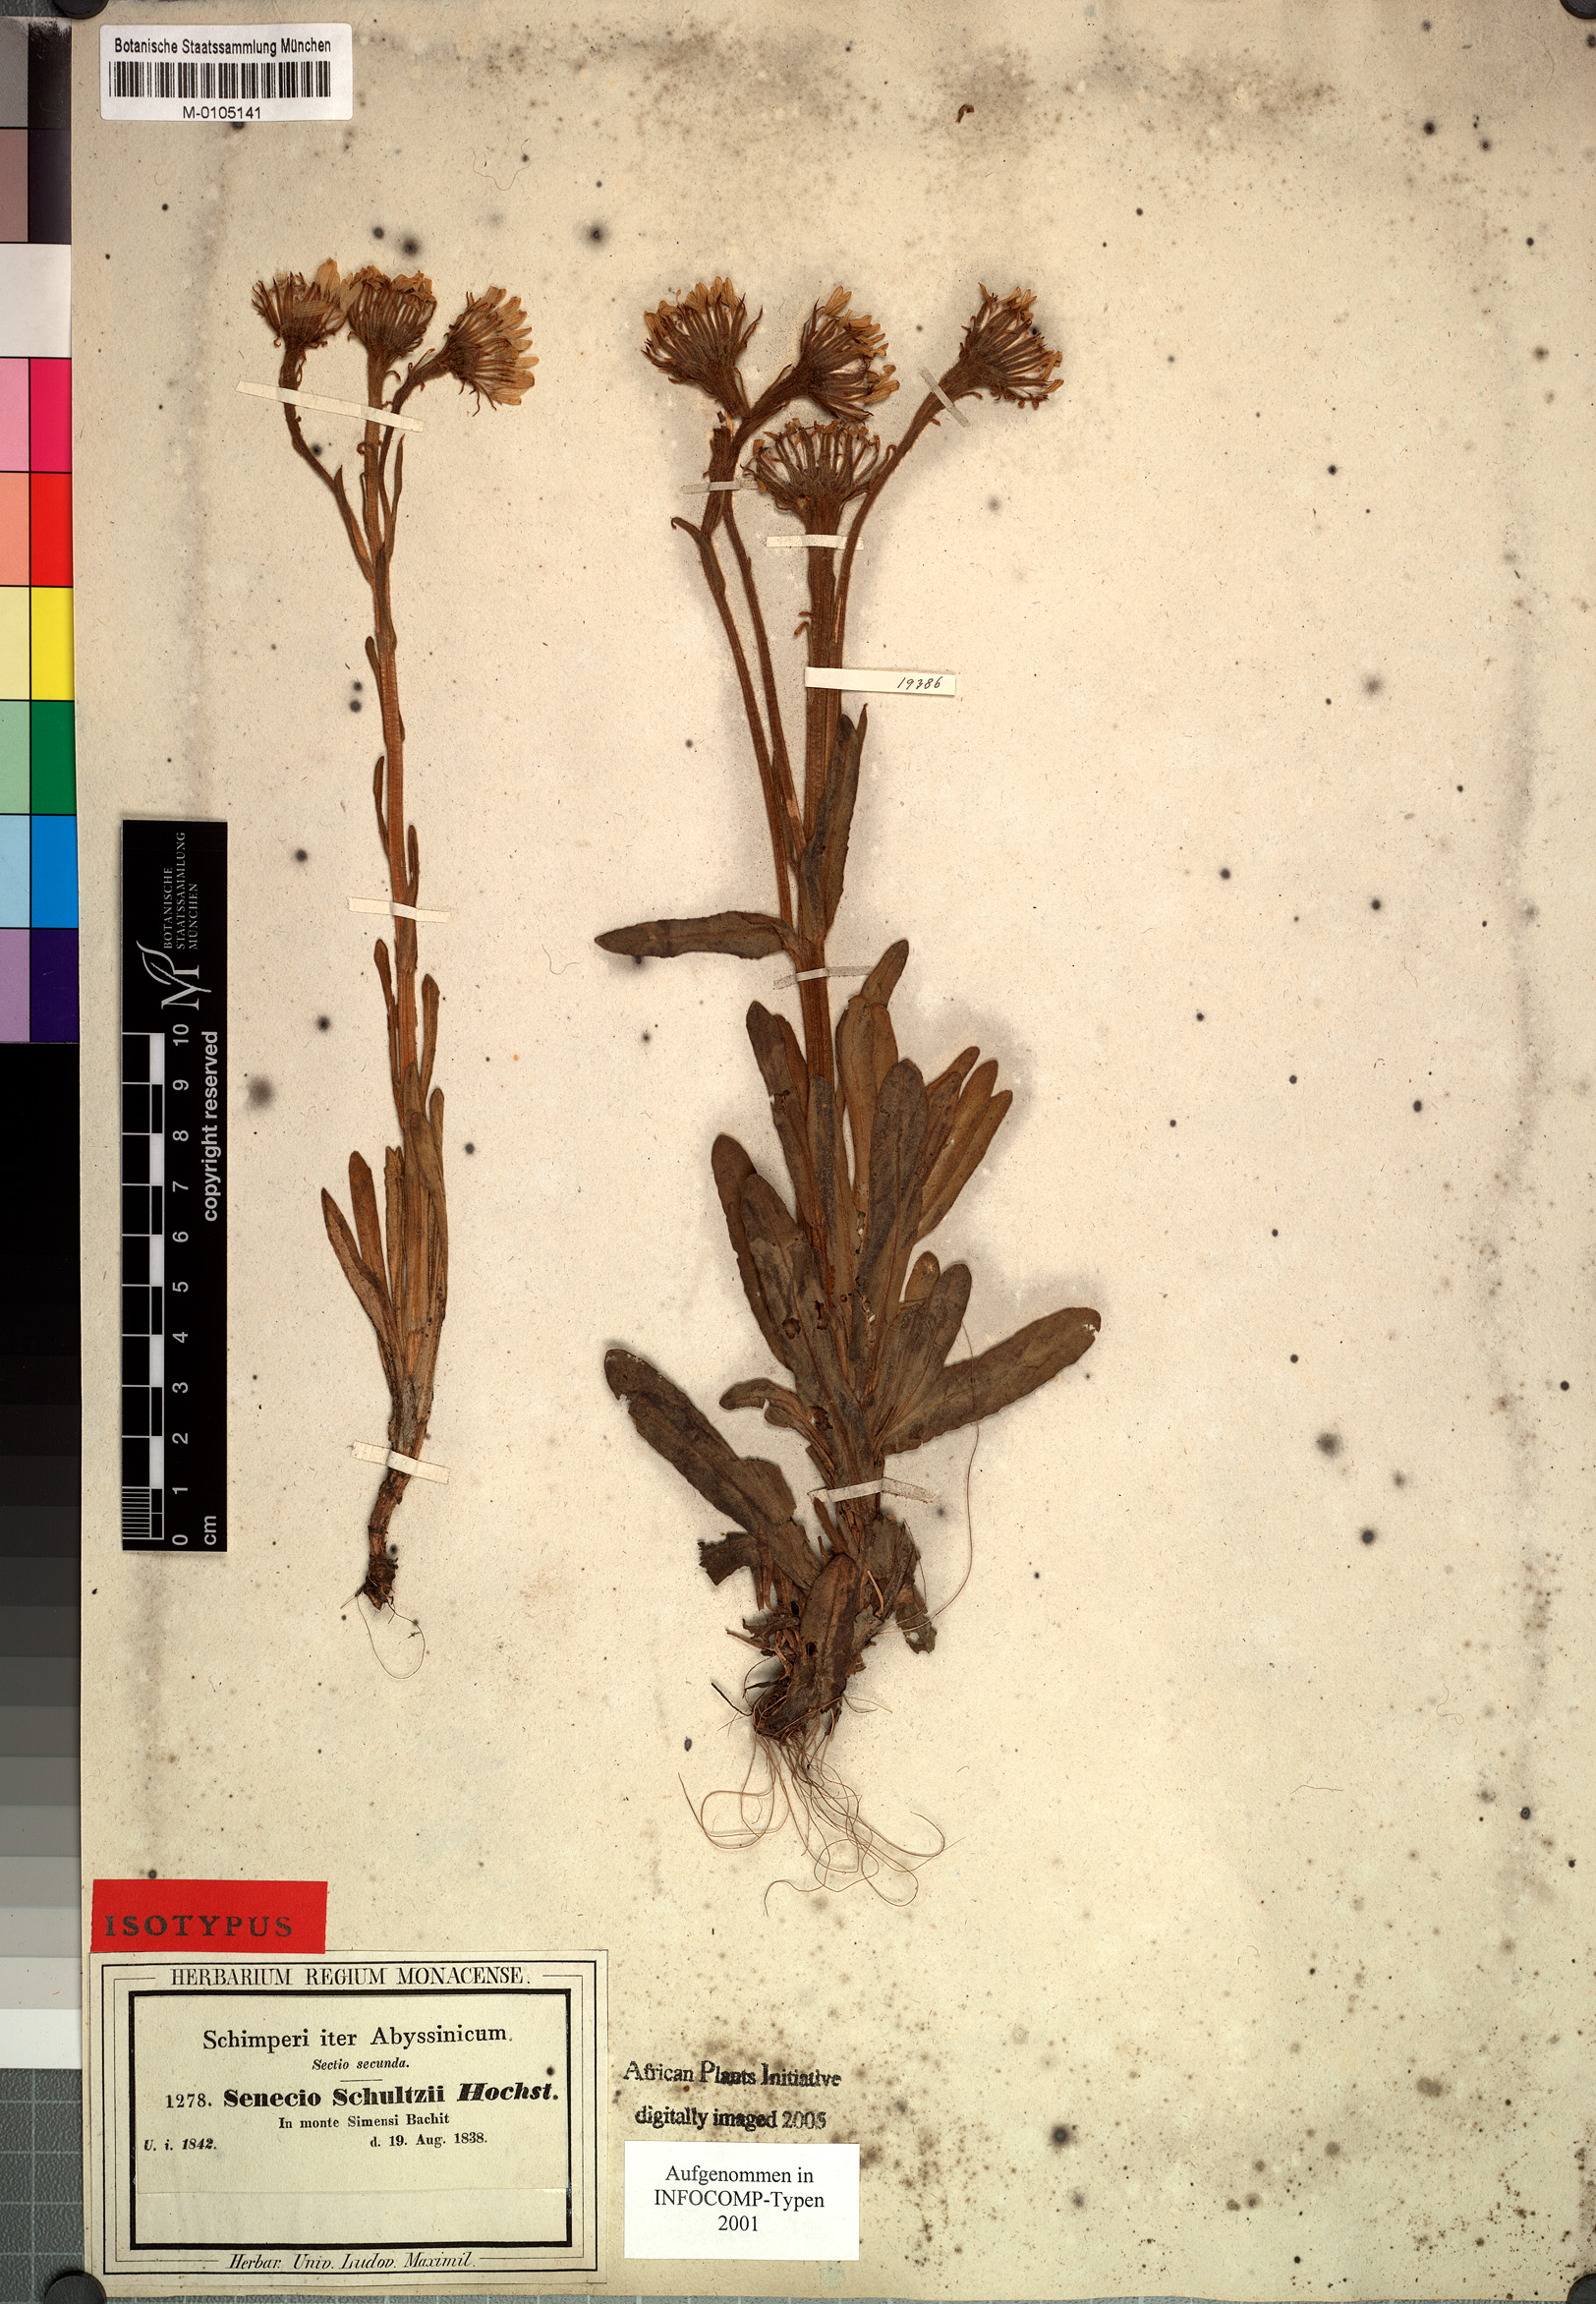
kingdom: Plantae
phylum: Tracheophyta
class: Magnoliopsida
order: Asterales
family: Asteraceae
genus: Senecio
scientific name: Senecio schultzii
